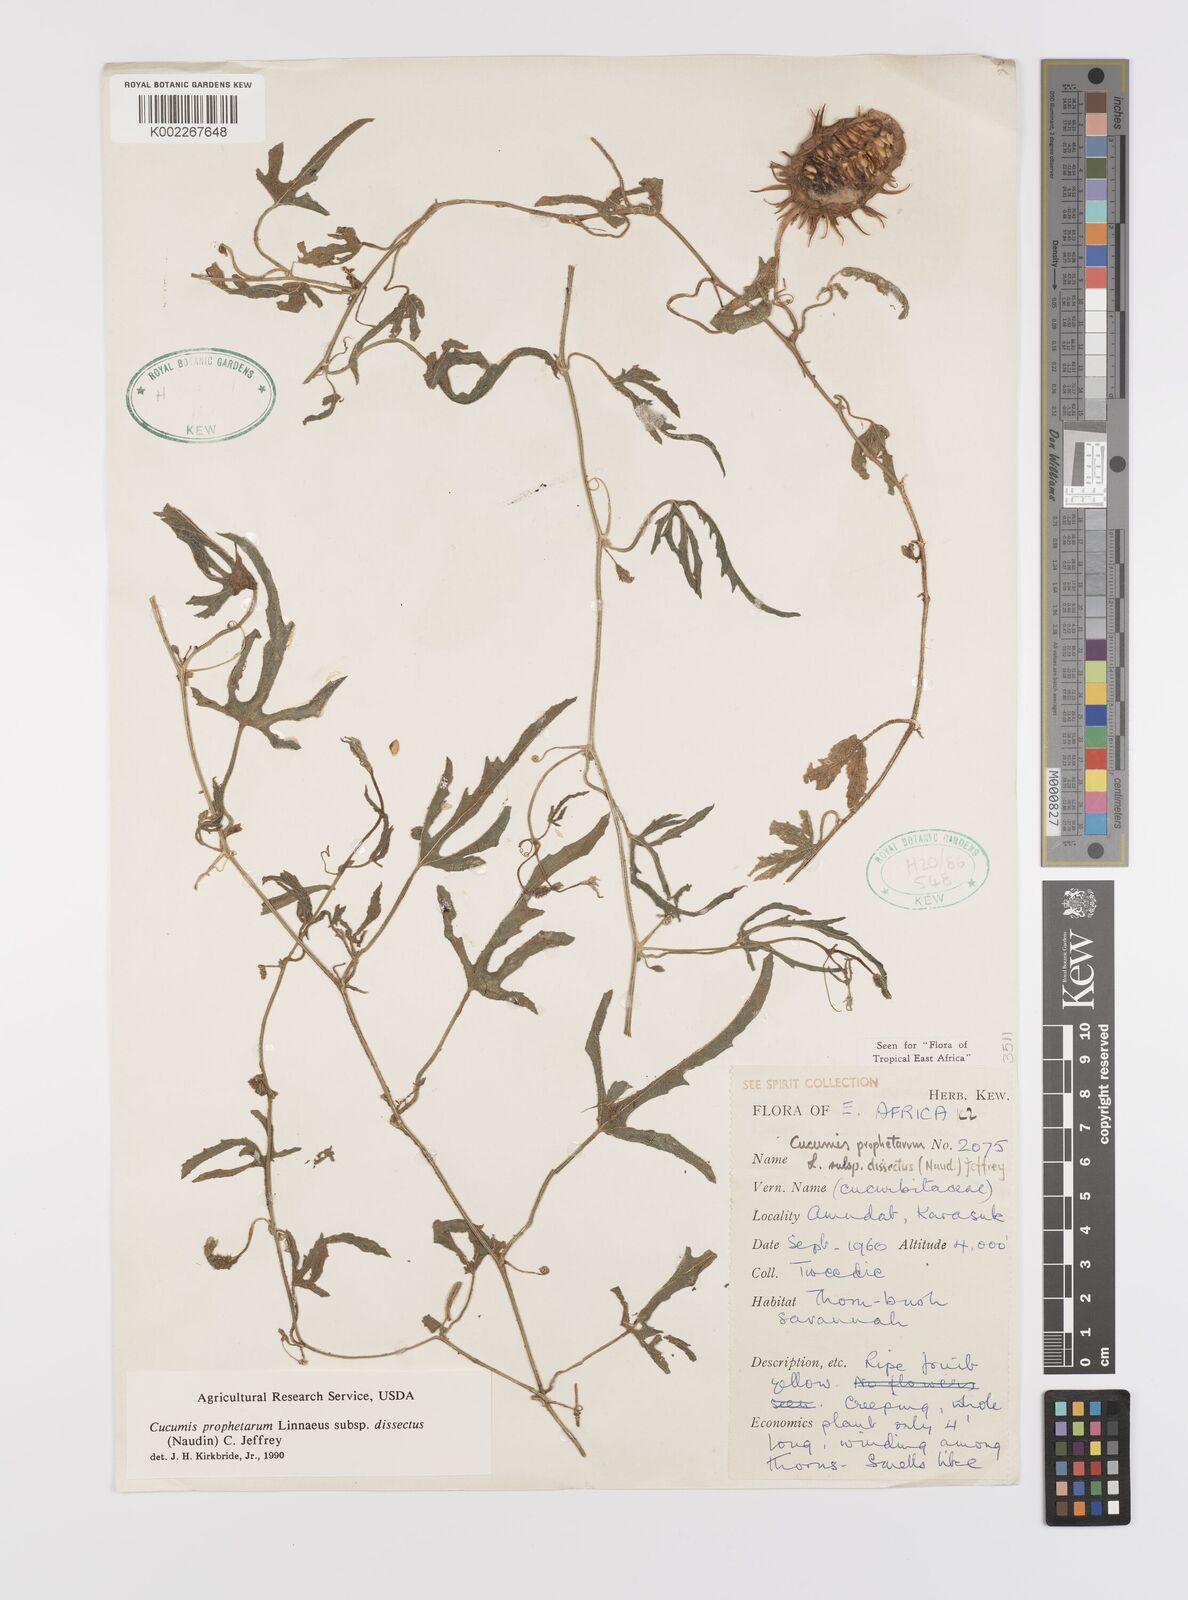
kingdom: Plantae
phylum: Tracheophyta
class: Magnoliopsida
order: Cucurbitales
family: Cucurbitaceae
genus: Cucumis
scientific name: Cucumis insignis
